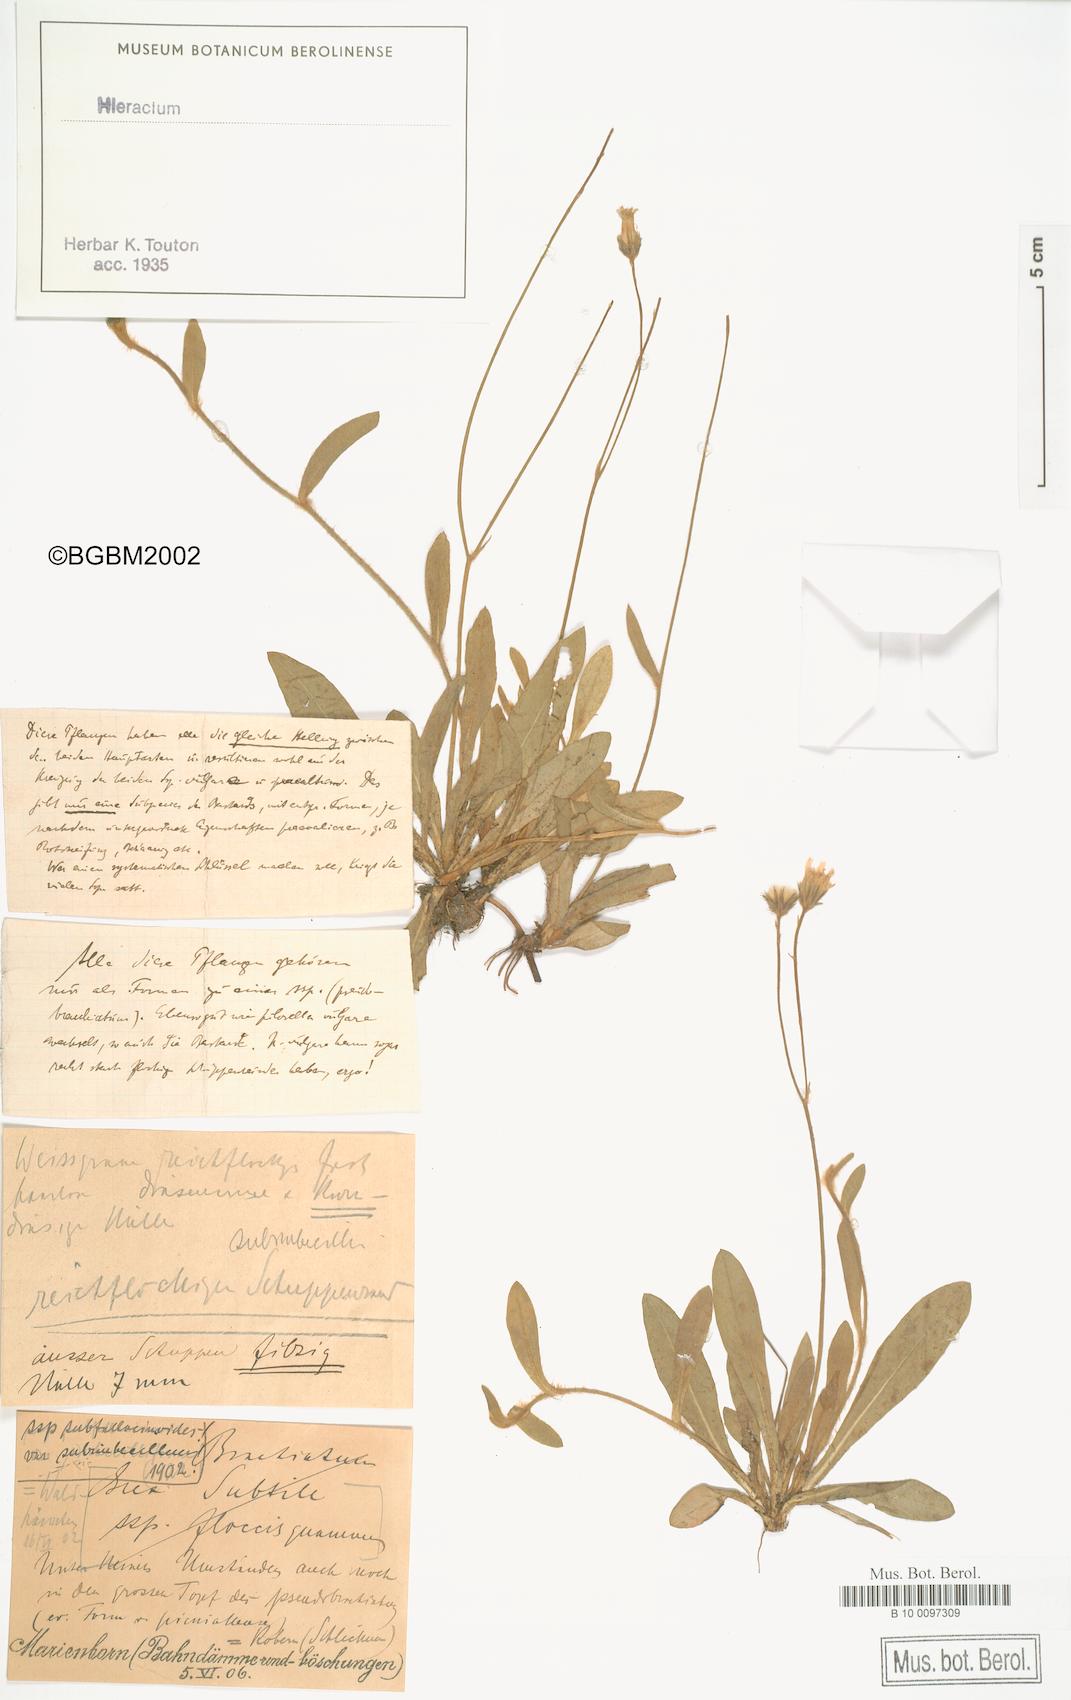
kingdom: Plantae
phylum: Tracheophyta
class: Magnoliopsida
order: Asterales
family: Asteraceae
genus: Pilosella
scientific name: Pilosella acutifolia
